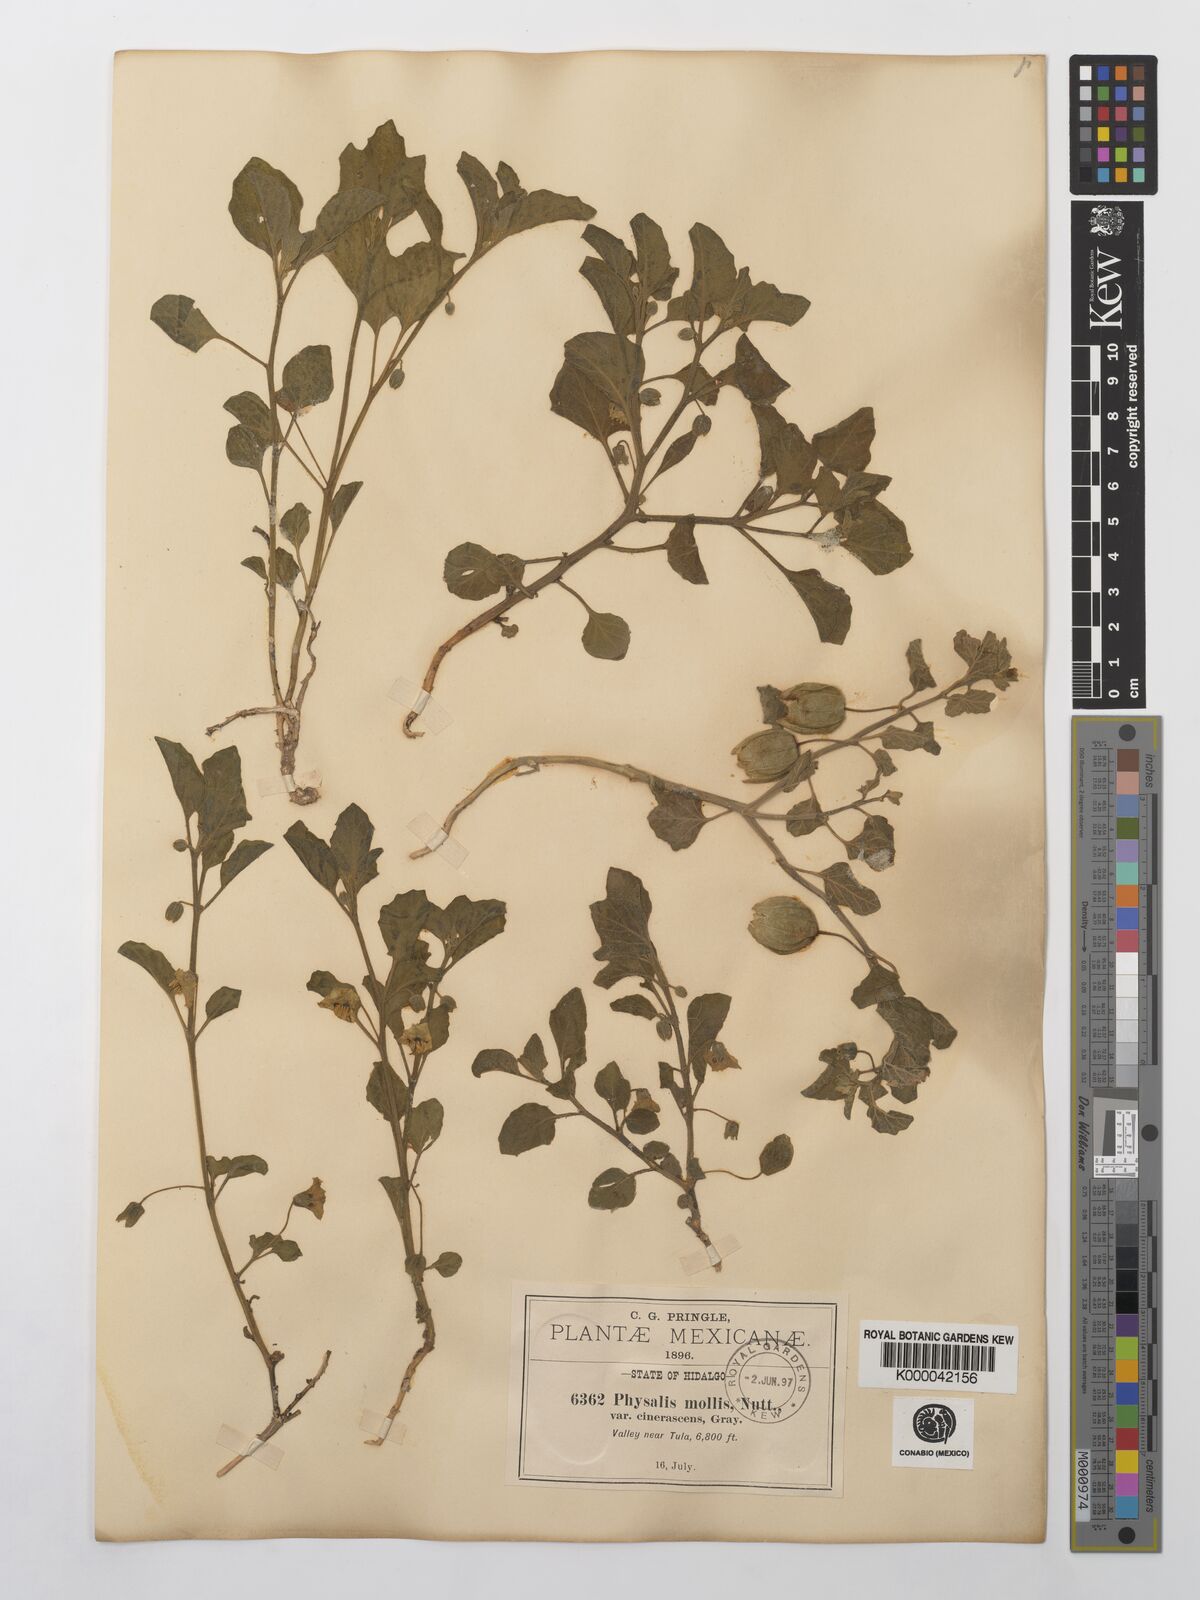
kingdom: Plantae
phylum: Tracheophyta
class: Magnoliopsida
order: Solanales
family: Solanaceae
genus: Physalis
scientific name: Physalis cinerascens
